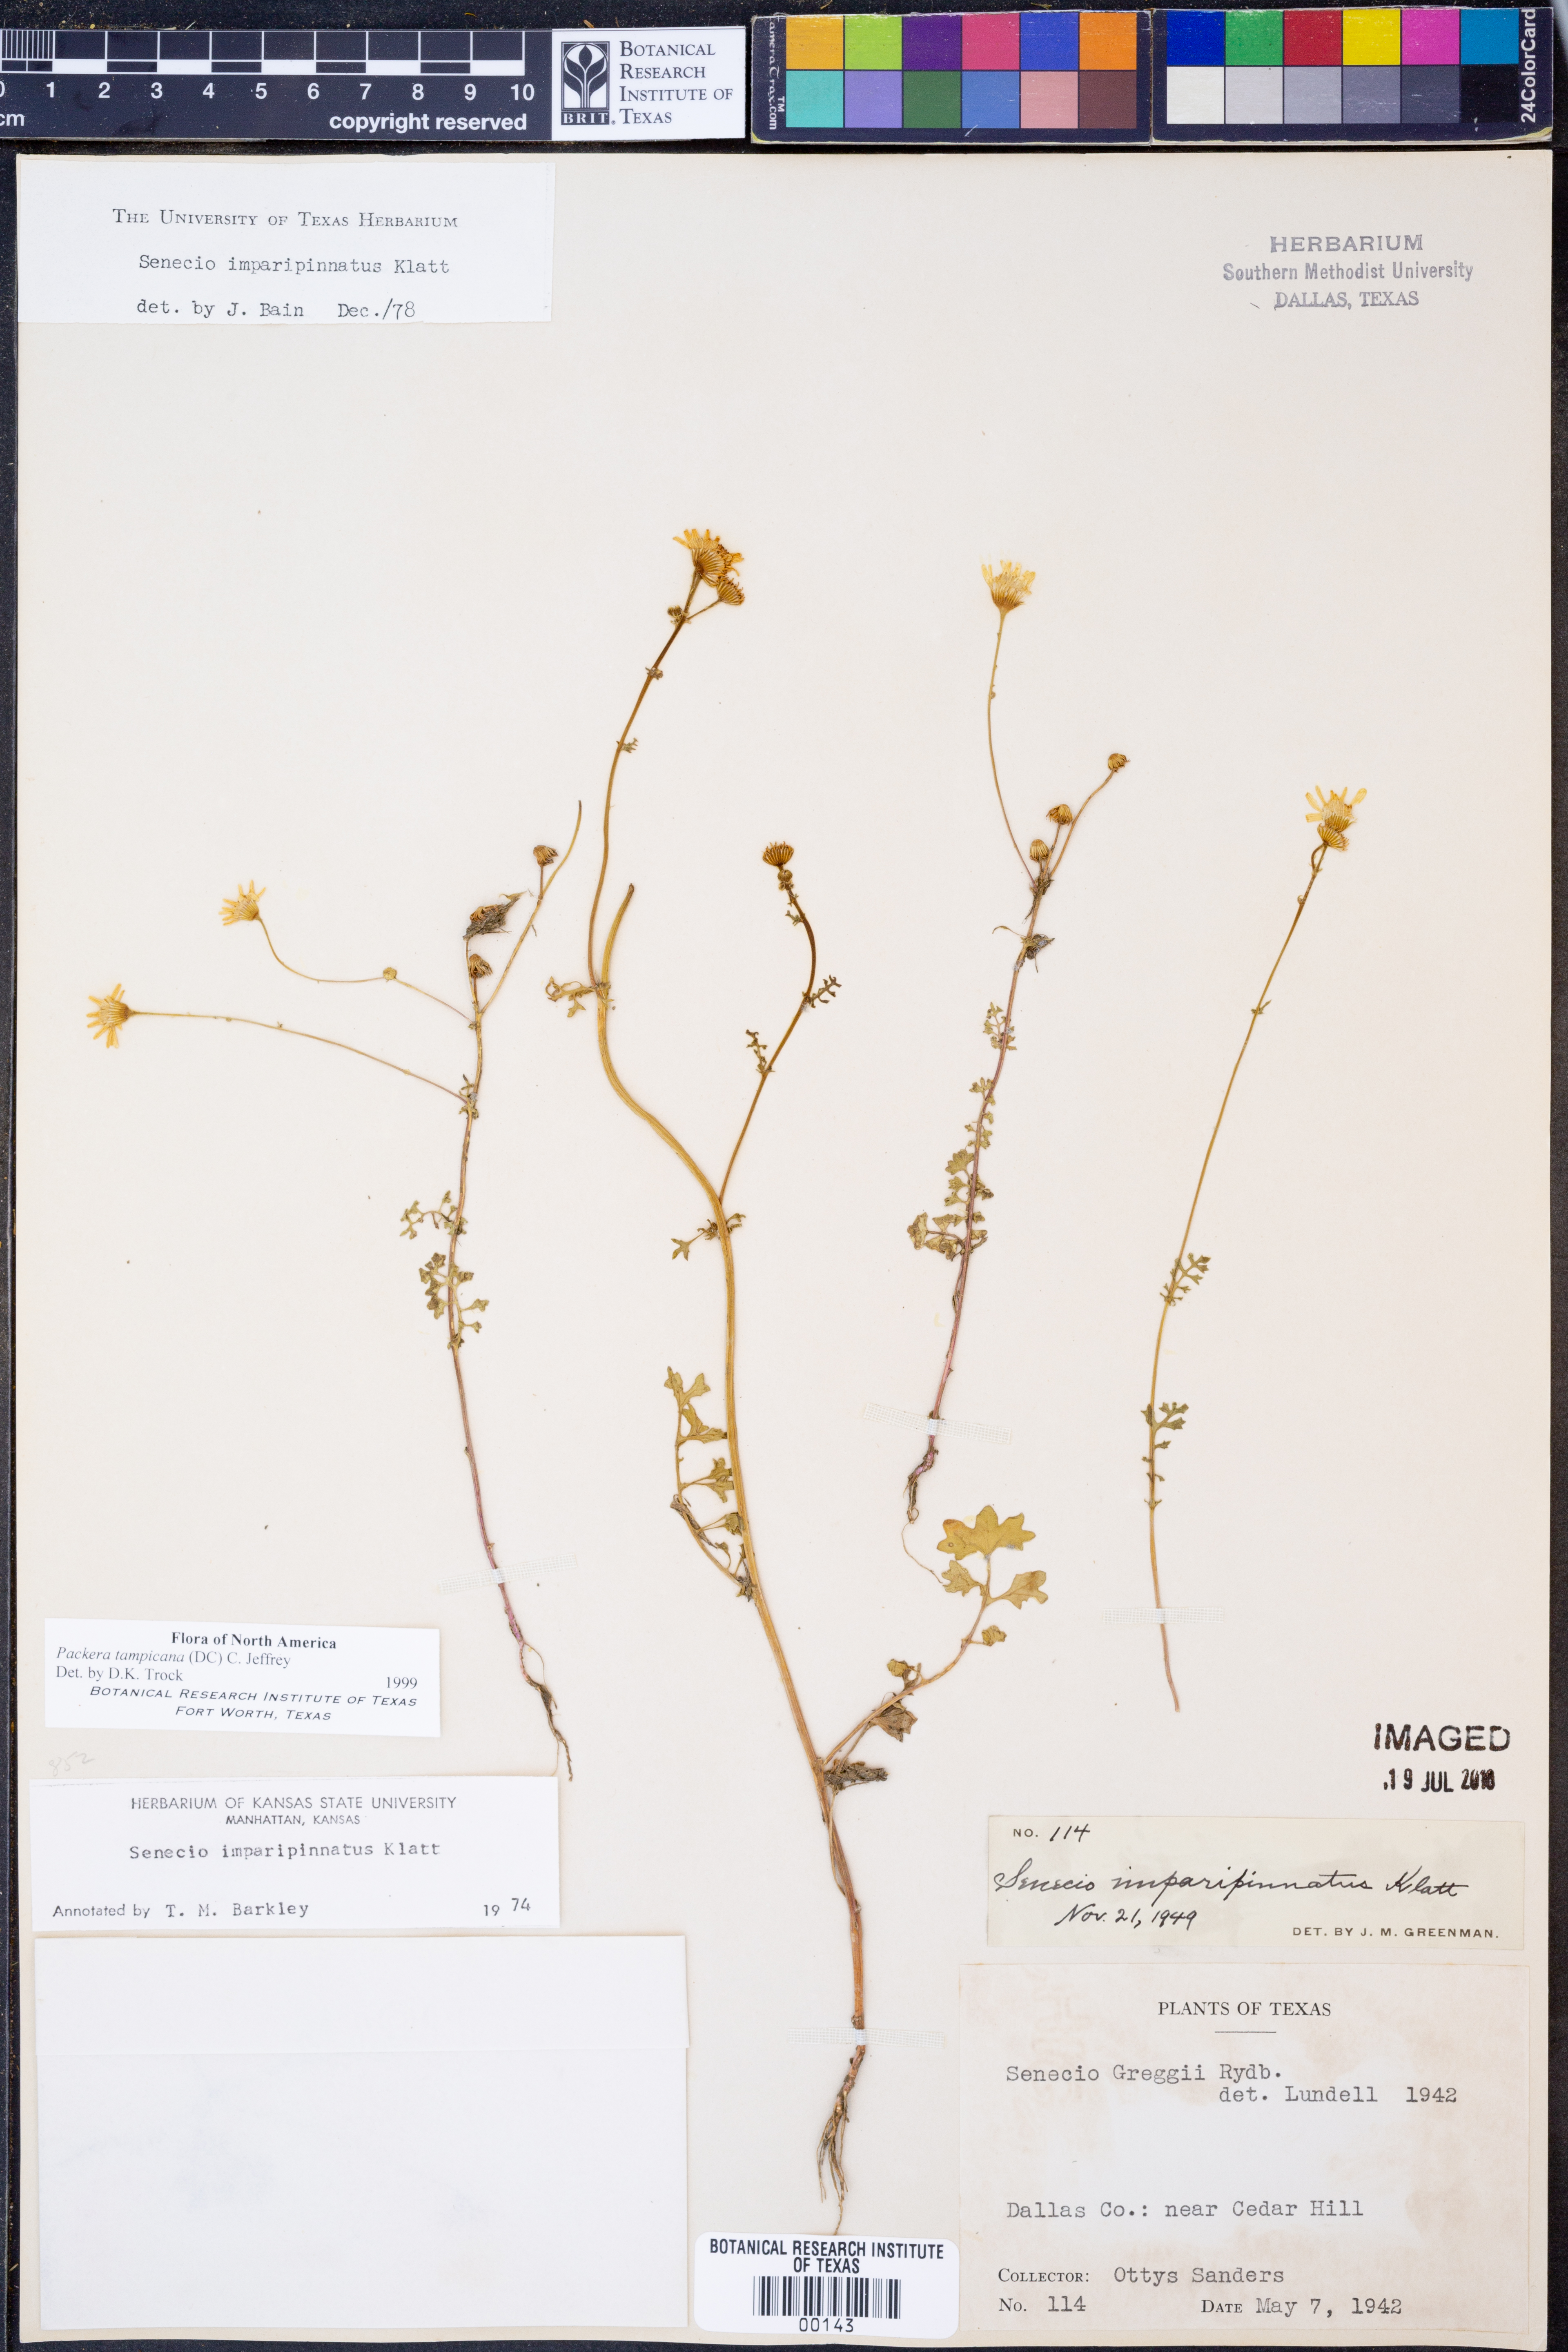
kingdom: Plantae
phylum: Tracheophyta
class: Magnoliopsida
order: Asterales
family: Asteraceae
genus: Packera
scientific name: Packera tampicana
